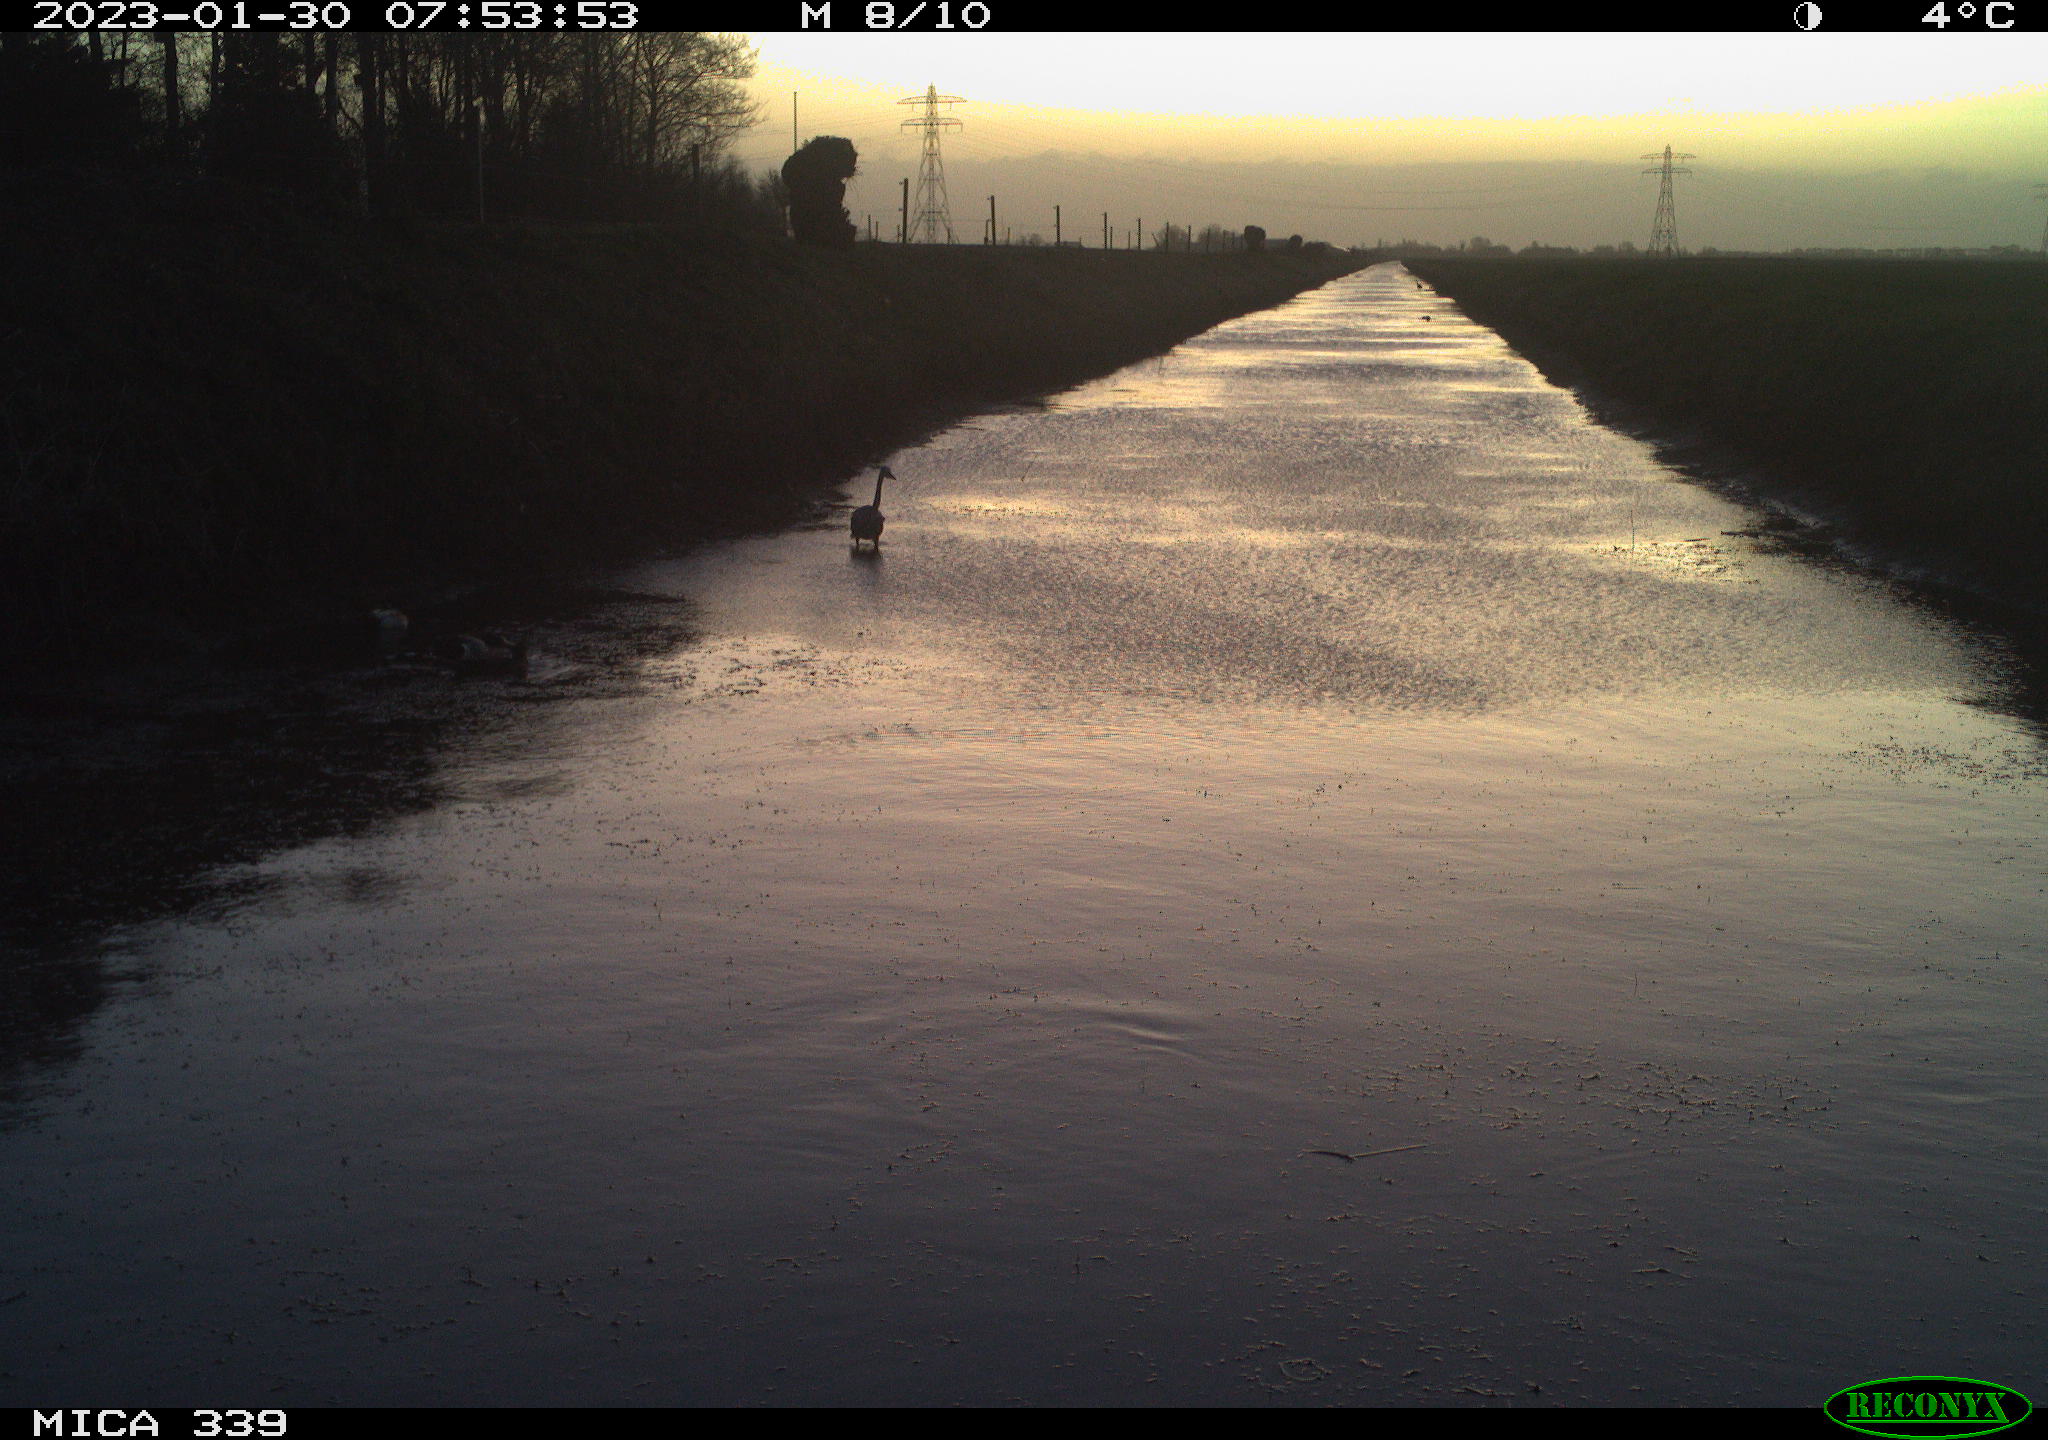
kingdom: Animalia
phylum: Chordata
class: Aves
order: Pelecaniformes
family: Ardeidae
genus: Ardea
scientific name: Ardea cinerea
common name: Grey heron
